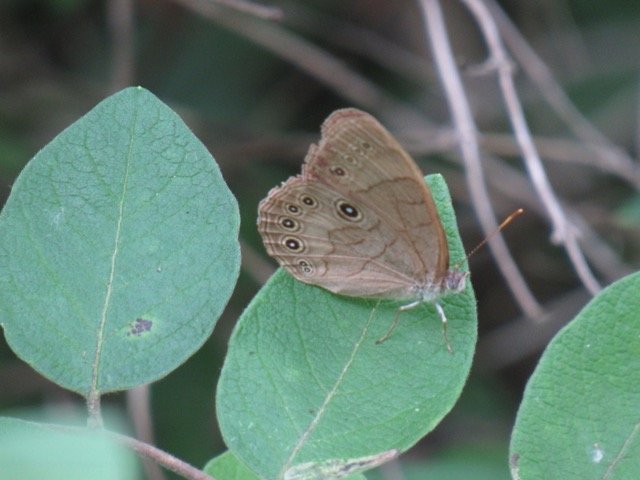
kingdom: Animalia
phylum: Arthropoda
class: Insecta
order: Lepidoptera
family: Nymphalidae
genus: Lethe
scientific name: Lethe eurydice
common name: Appalachian Eyed Brown
